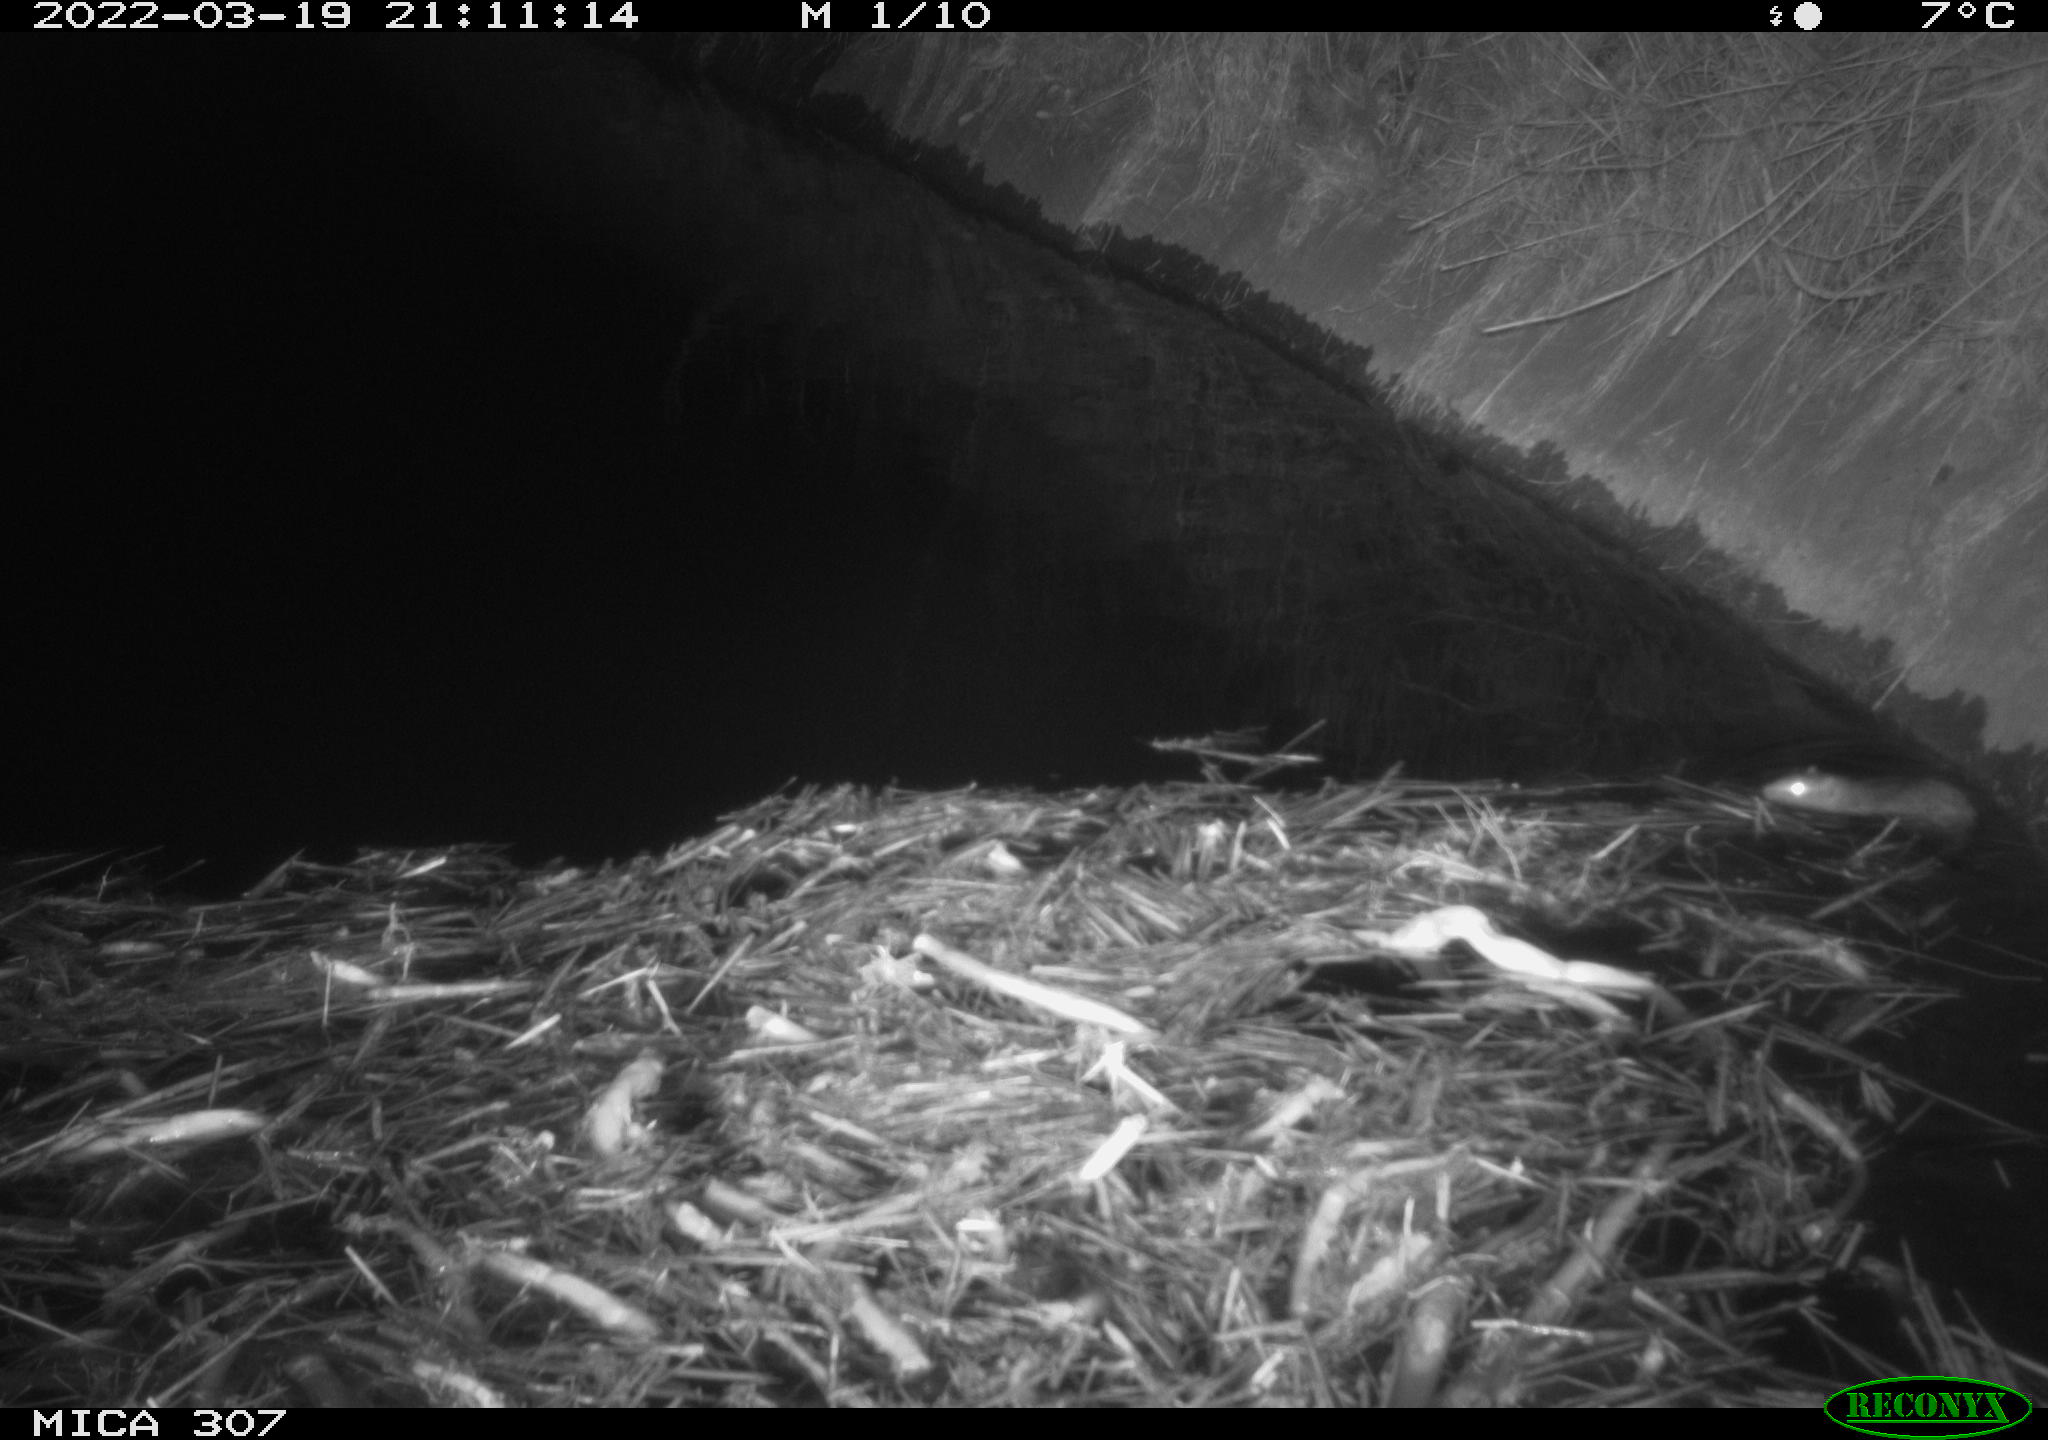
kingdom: Animalia
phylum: Chordata
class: Mammalia
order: Rodentia
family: Muridae
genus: Rattus
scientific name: Rattus norvegicus
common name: Brown rat
